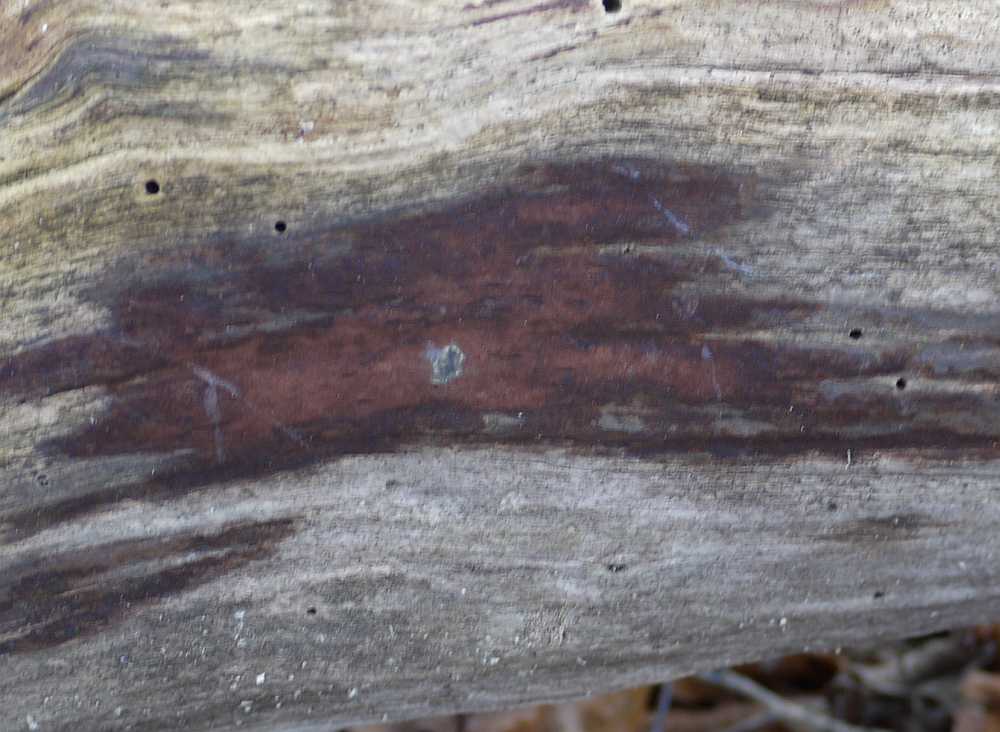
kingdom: Fungi
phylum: Ascomycota
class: Sordariomycetes
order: Xylariales
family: Hypoxylaceae
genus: Hypoxylon
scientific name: Hypoxylon macrocarpum
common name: skorpe-kulbær
